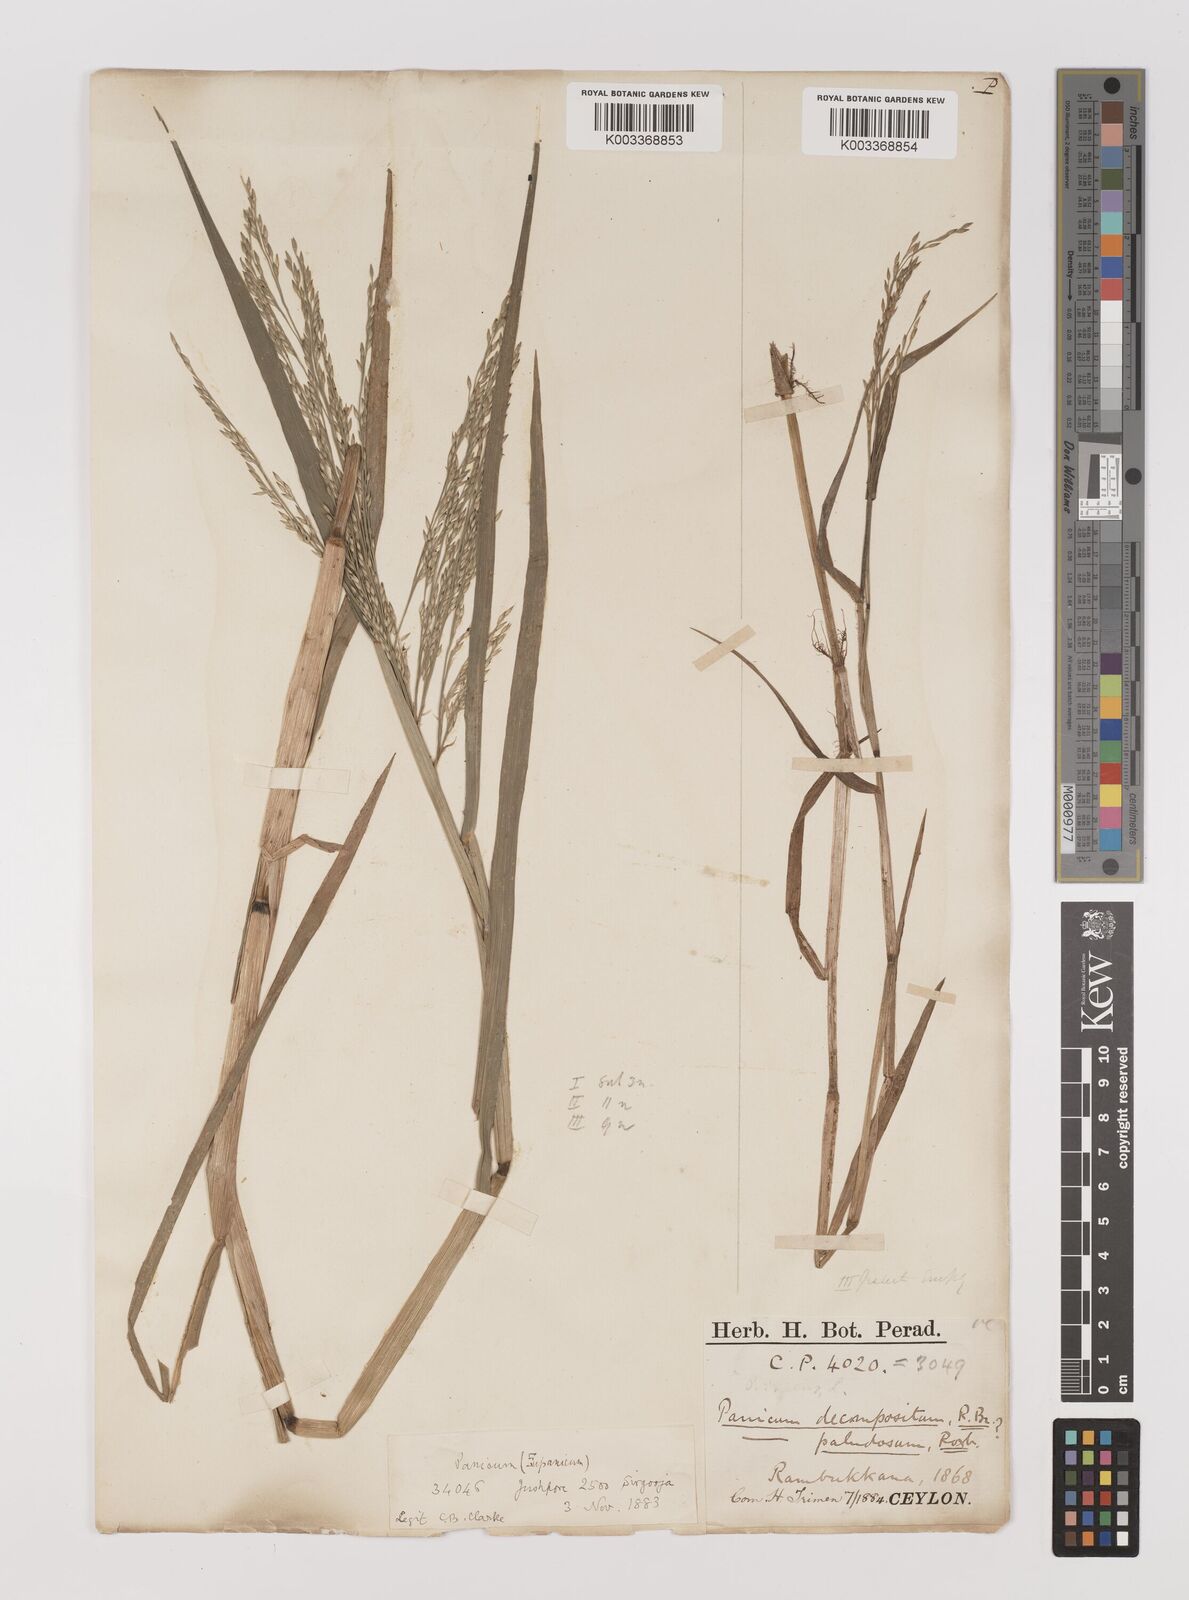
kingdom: Plantae
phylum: Tracheophyta
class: Liliopsida
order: Poales
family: Poaceae
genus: Louisiella
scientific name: Louisiella paludosa
